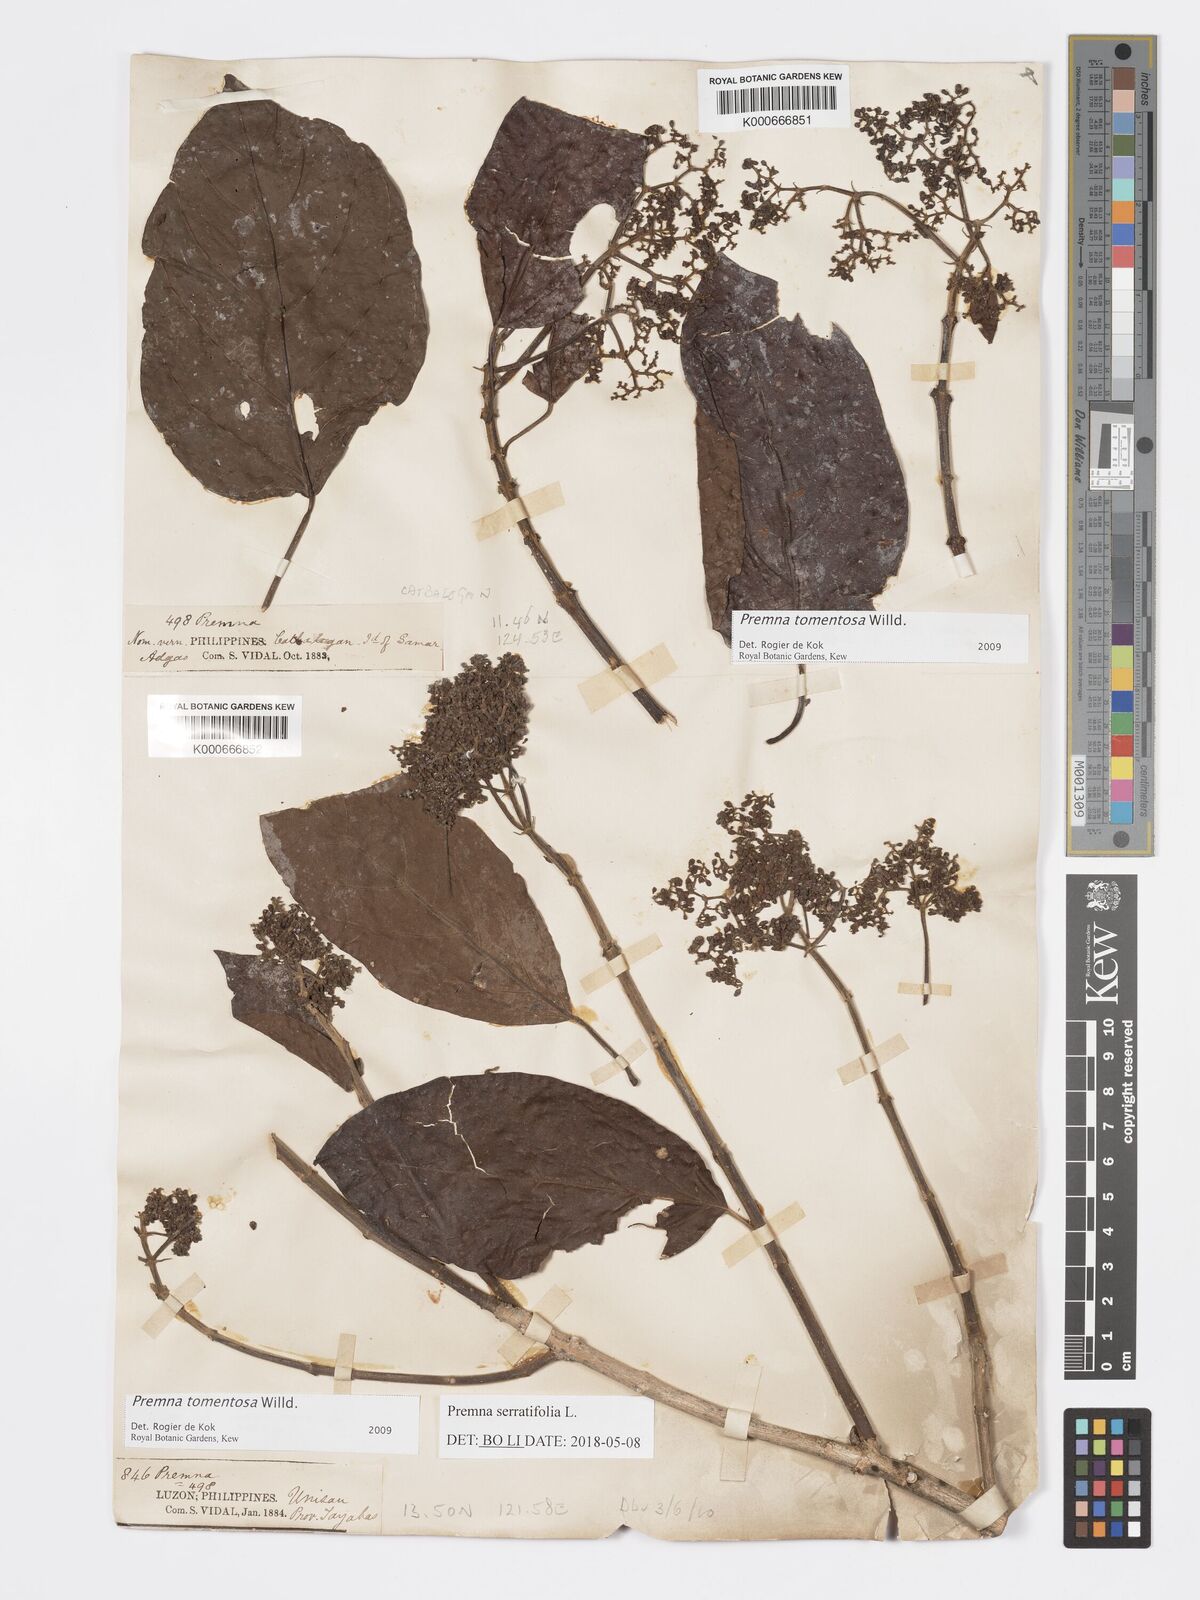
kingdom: Plantae
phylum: Tracheophyta
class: Magnoliopsida
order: Lamiales
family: Lamiaceae
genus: Premna
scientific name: Premna tomentosa
